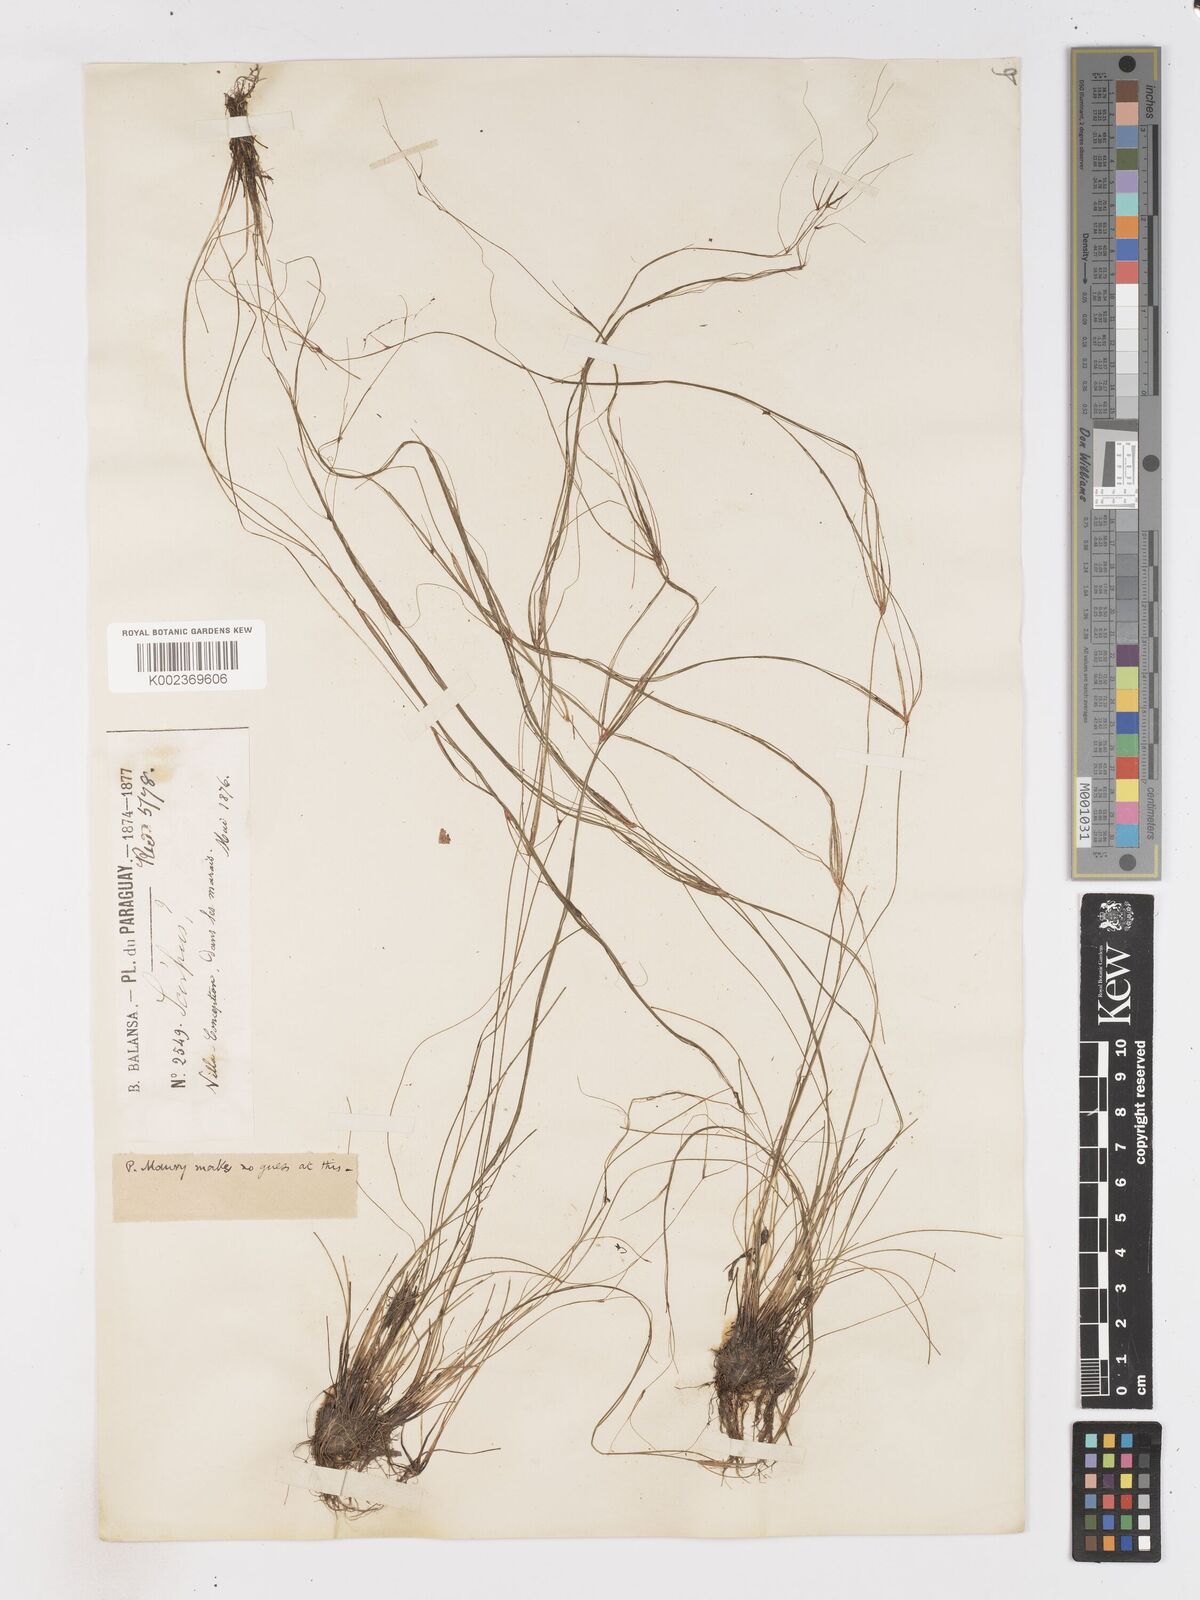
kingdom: Plantae
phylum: Tracheophyta
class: Liliopsida
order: Poales
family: Cyperaceae
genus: Isolepis
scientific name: Isolepis natans
